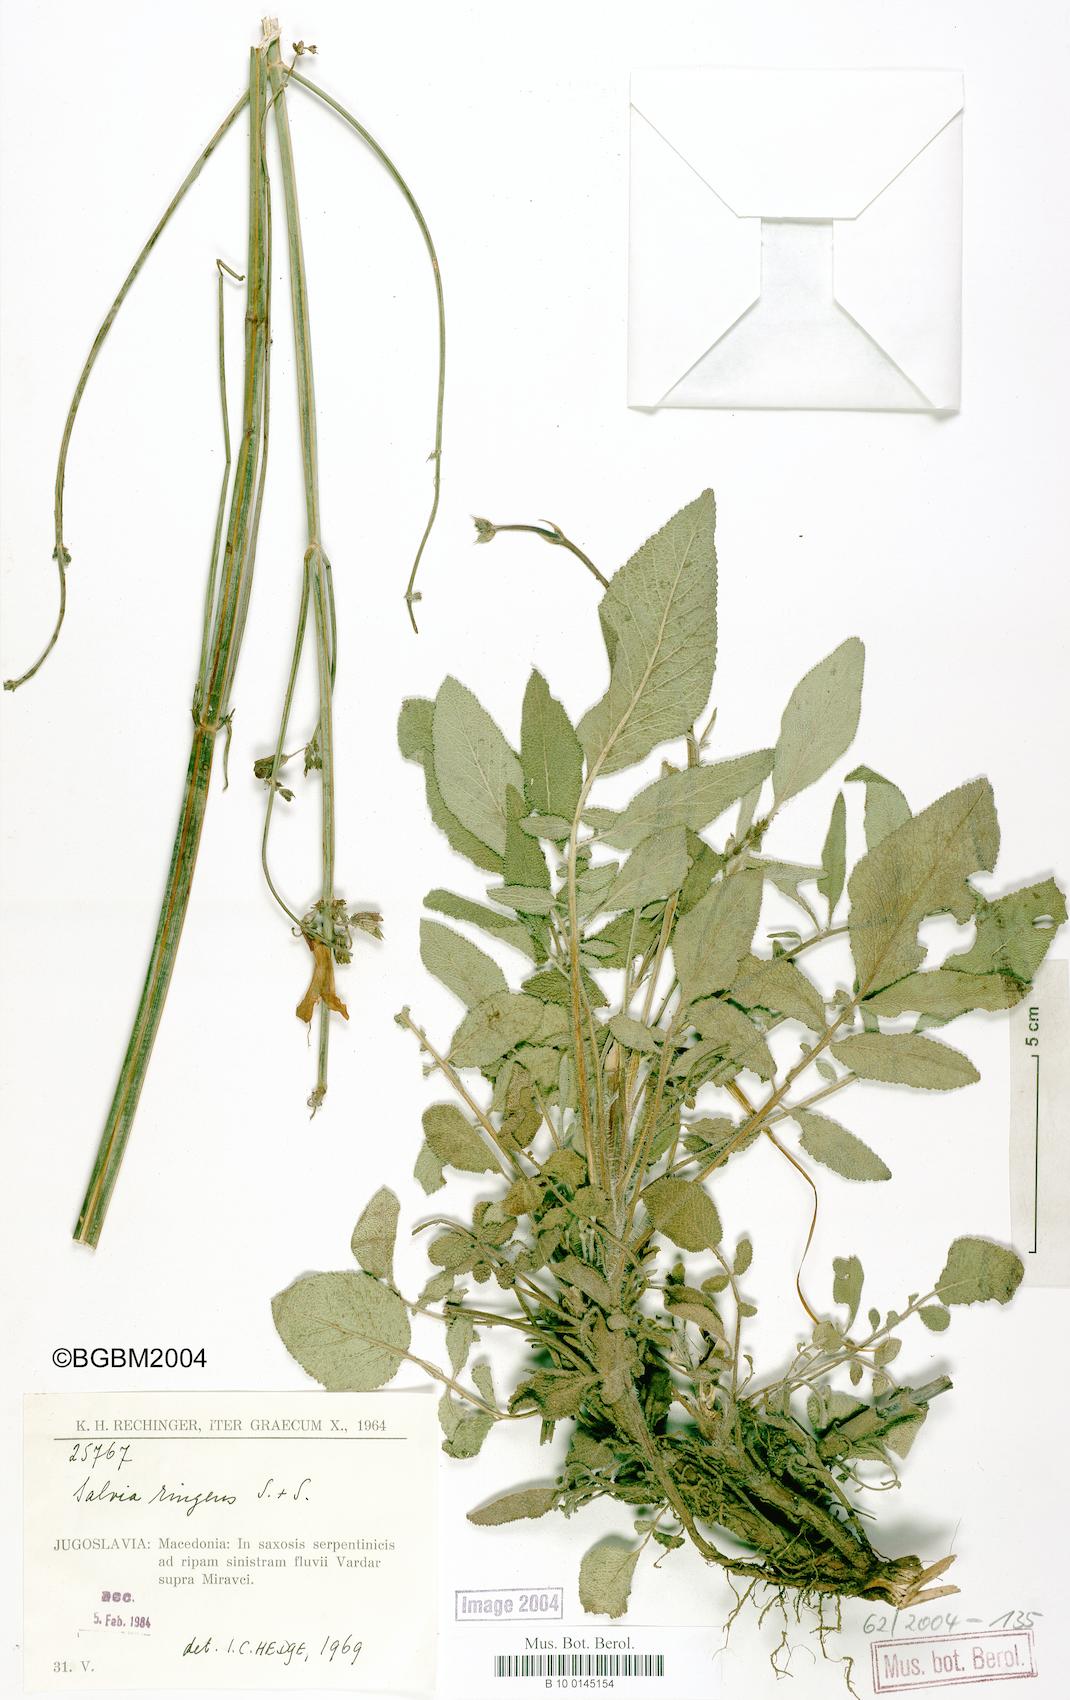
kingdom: Plantae
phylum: Tracheophyta
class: Magnoliopsida
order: Lamiales
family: Lamiaceae
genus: Salvia
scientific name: Salvia ringens
